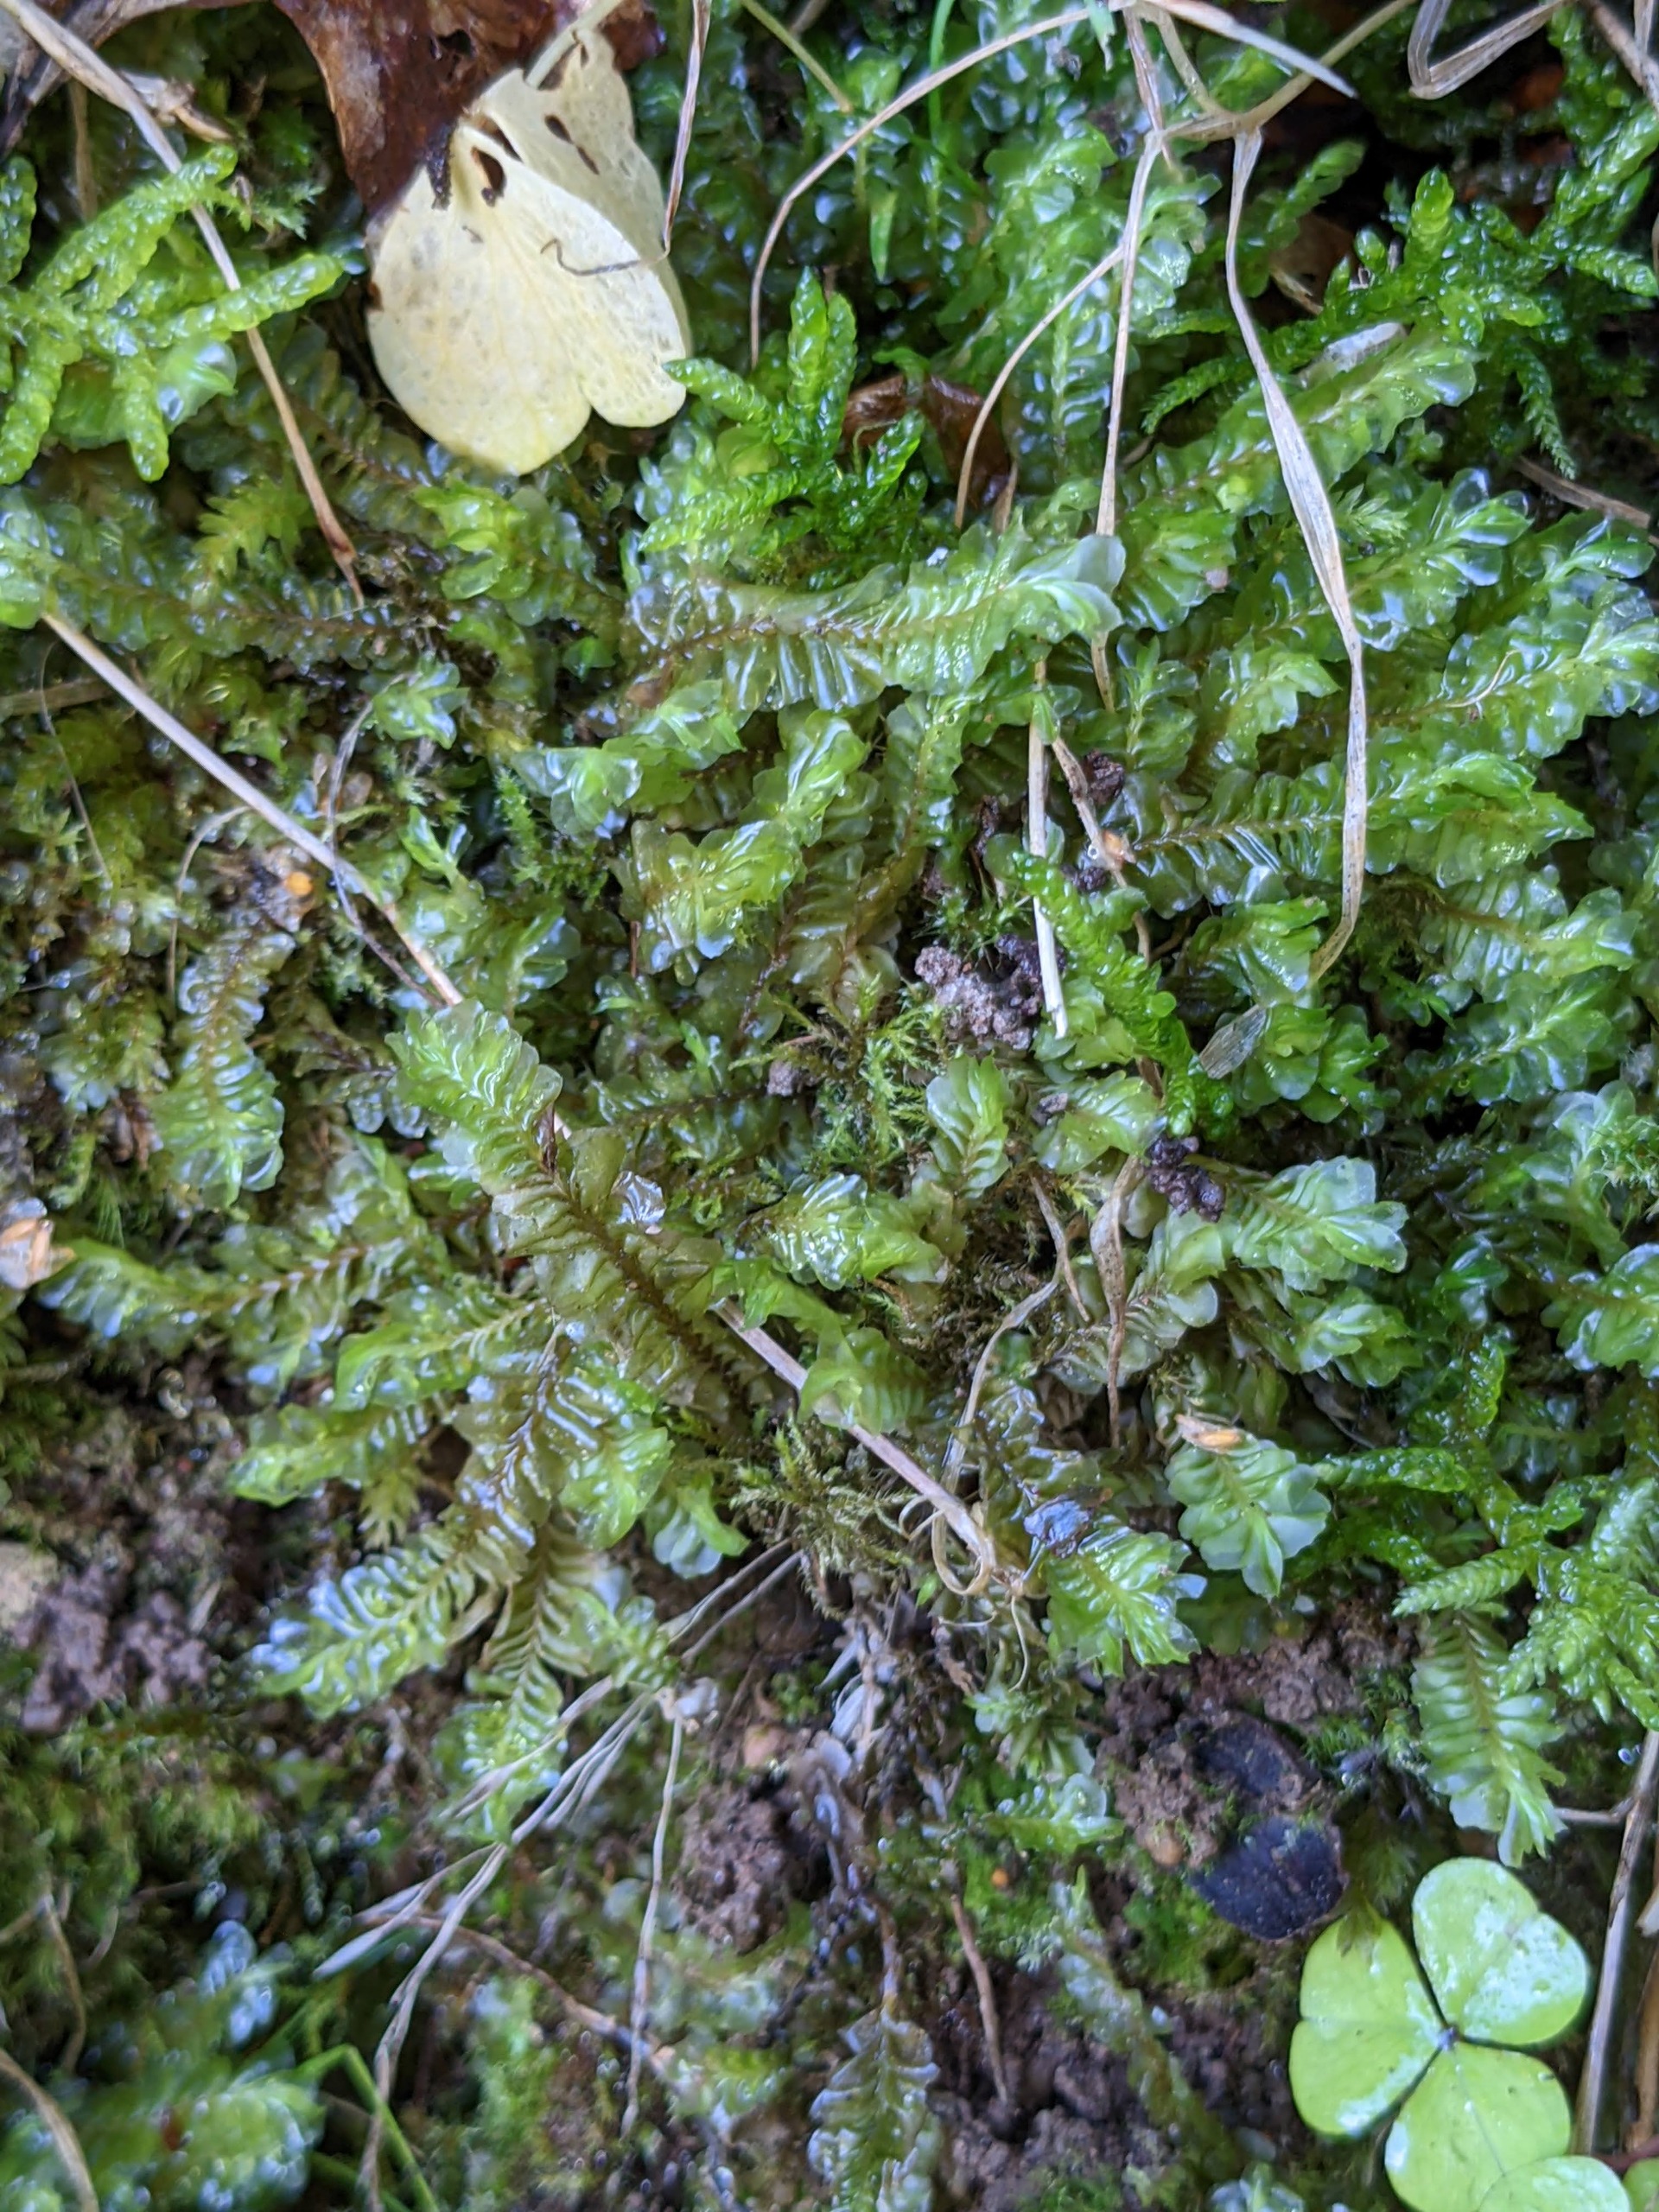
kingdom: Plantae
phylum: Marchantiophyta
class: Jungermanniopsida
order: Jungermanniales
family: Plagiochilaceae
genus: Plagiochila
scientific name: Plagiochila asplenioides
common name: Radeløv-hindeblad
